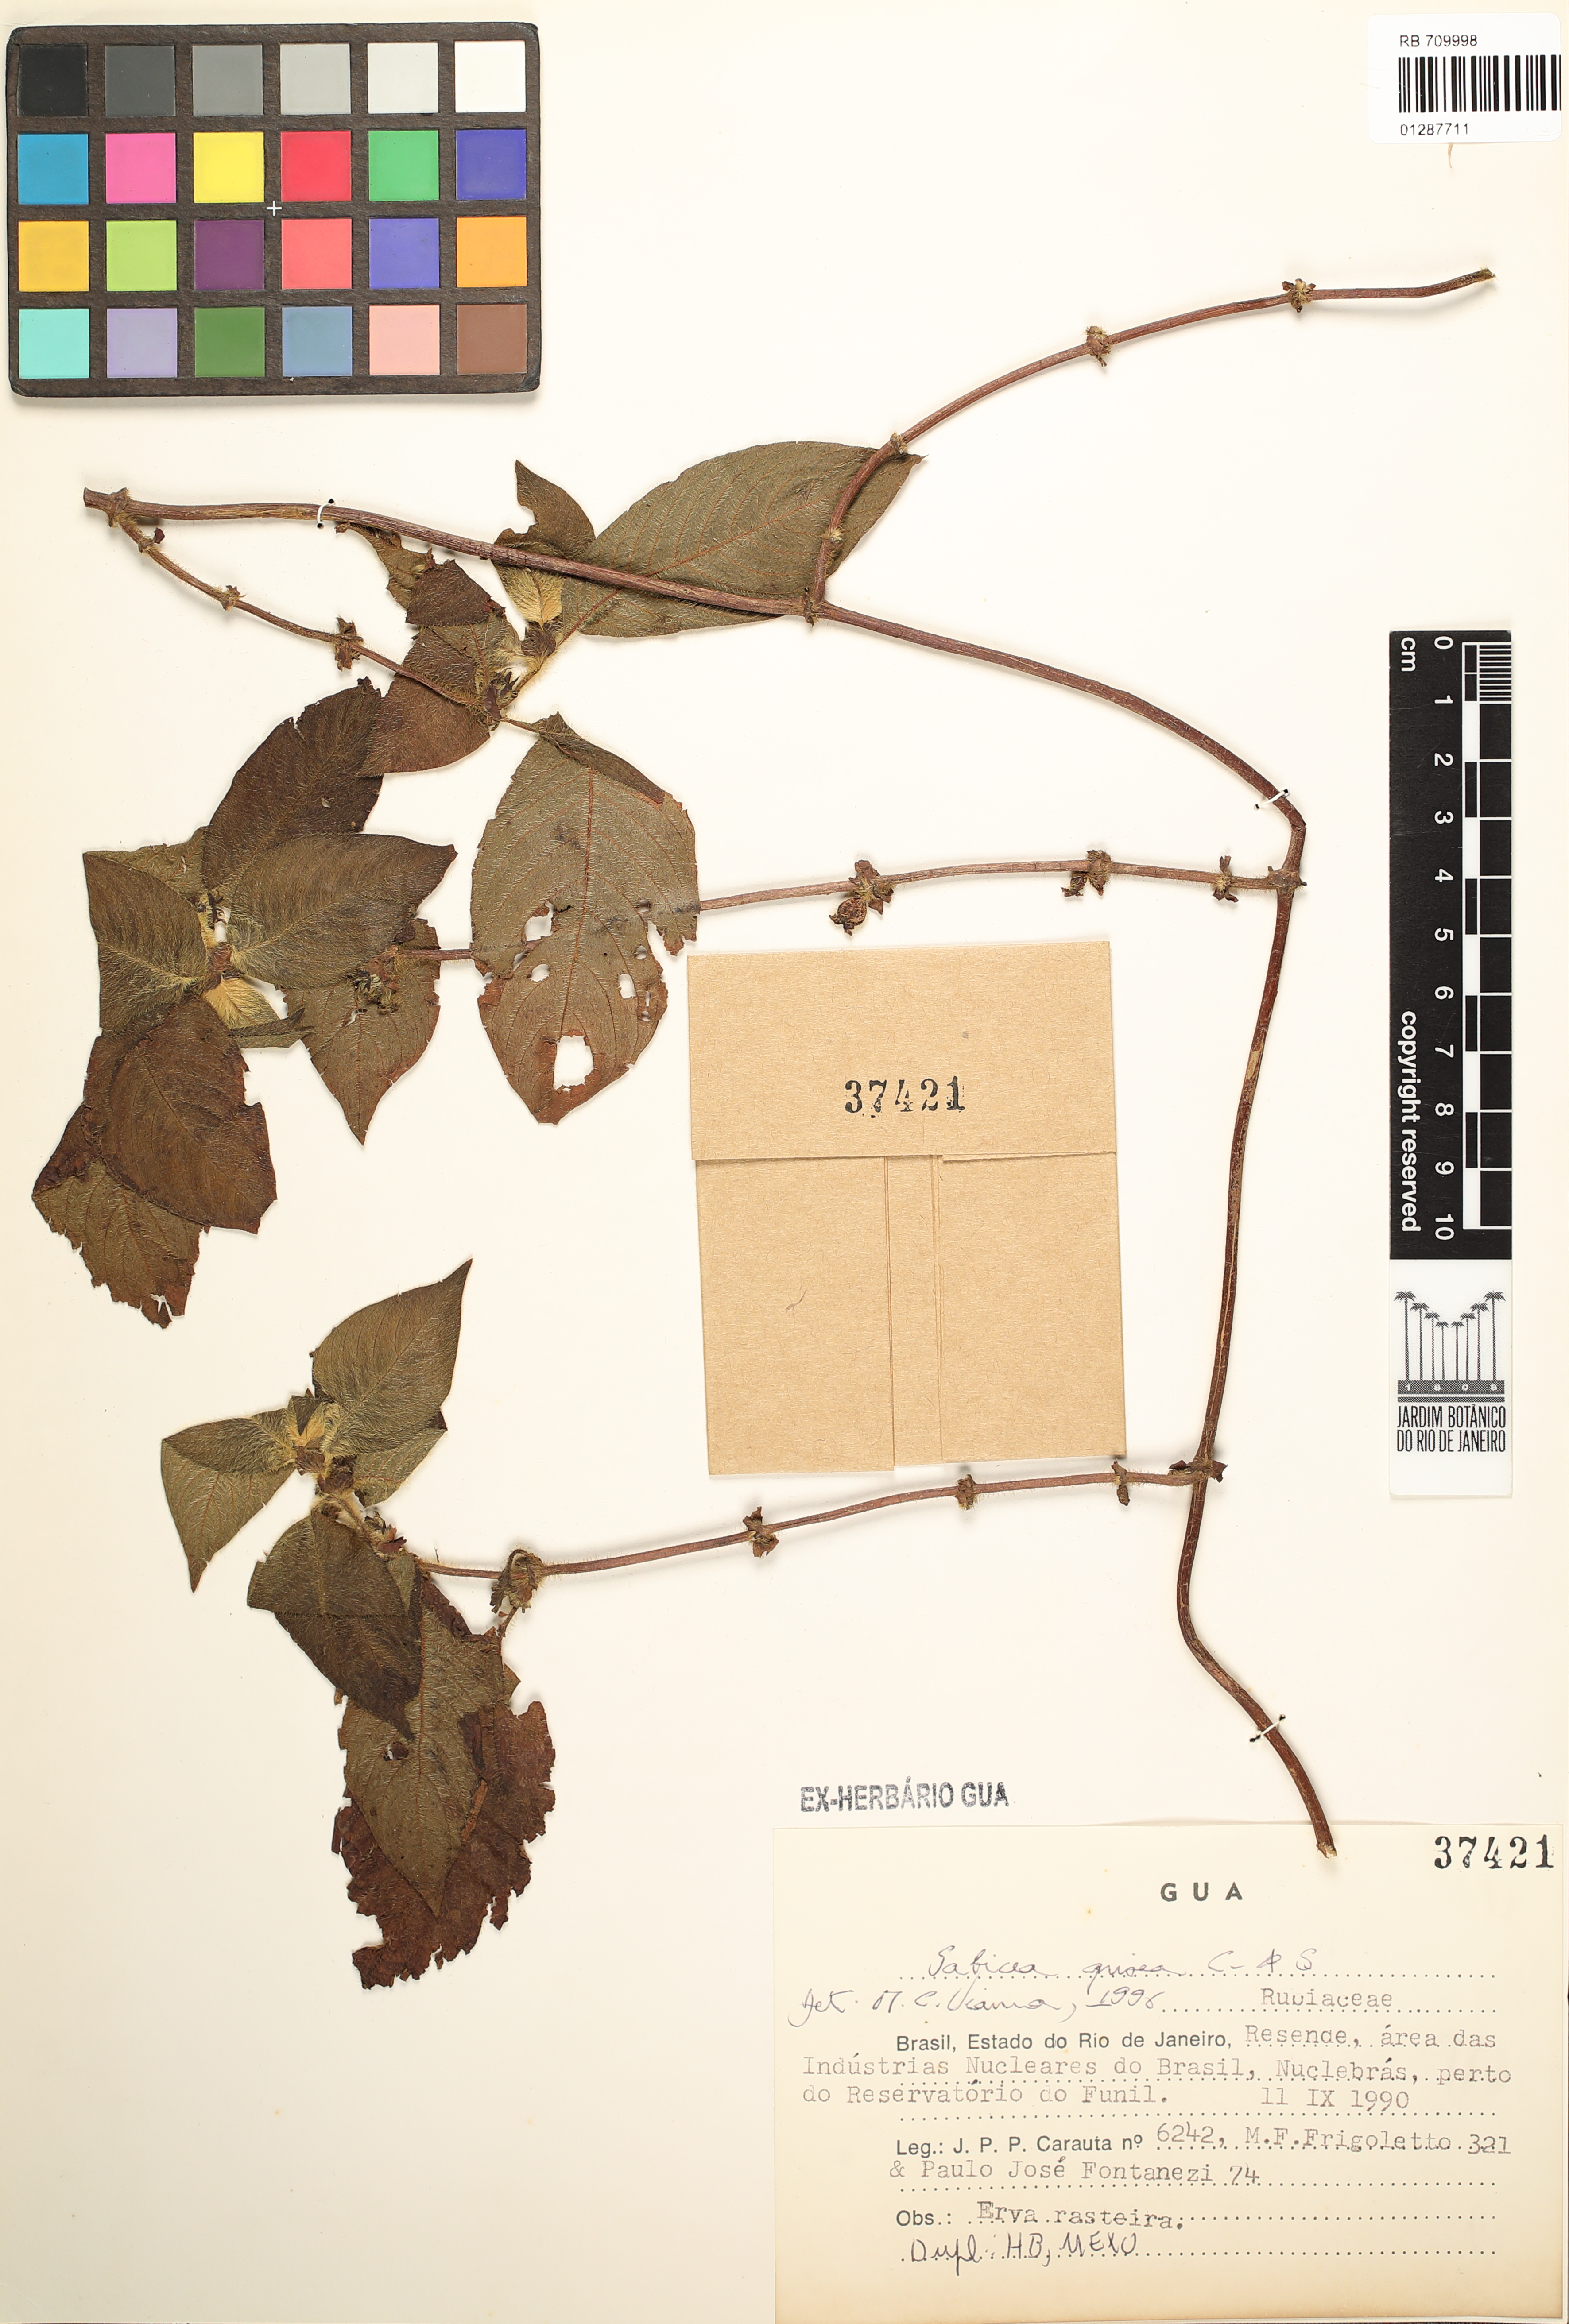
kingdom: Plantae
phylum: Tracheophyta
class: Magnoliopsida
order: Gentianales
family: Rubiaceae
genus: Sabicea
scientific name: Sabicea grisea
